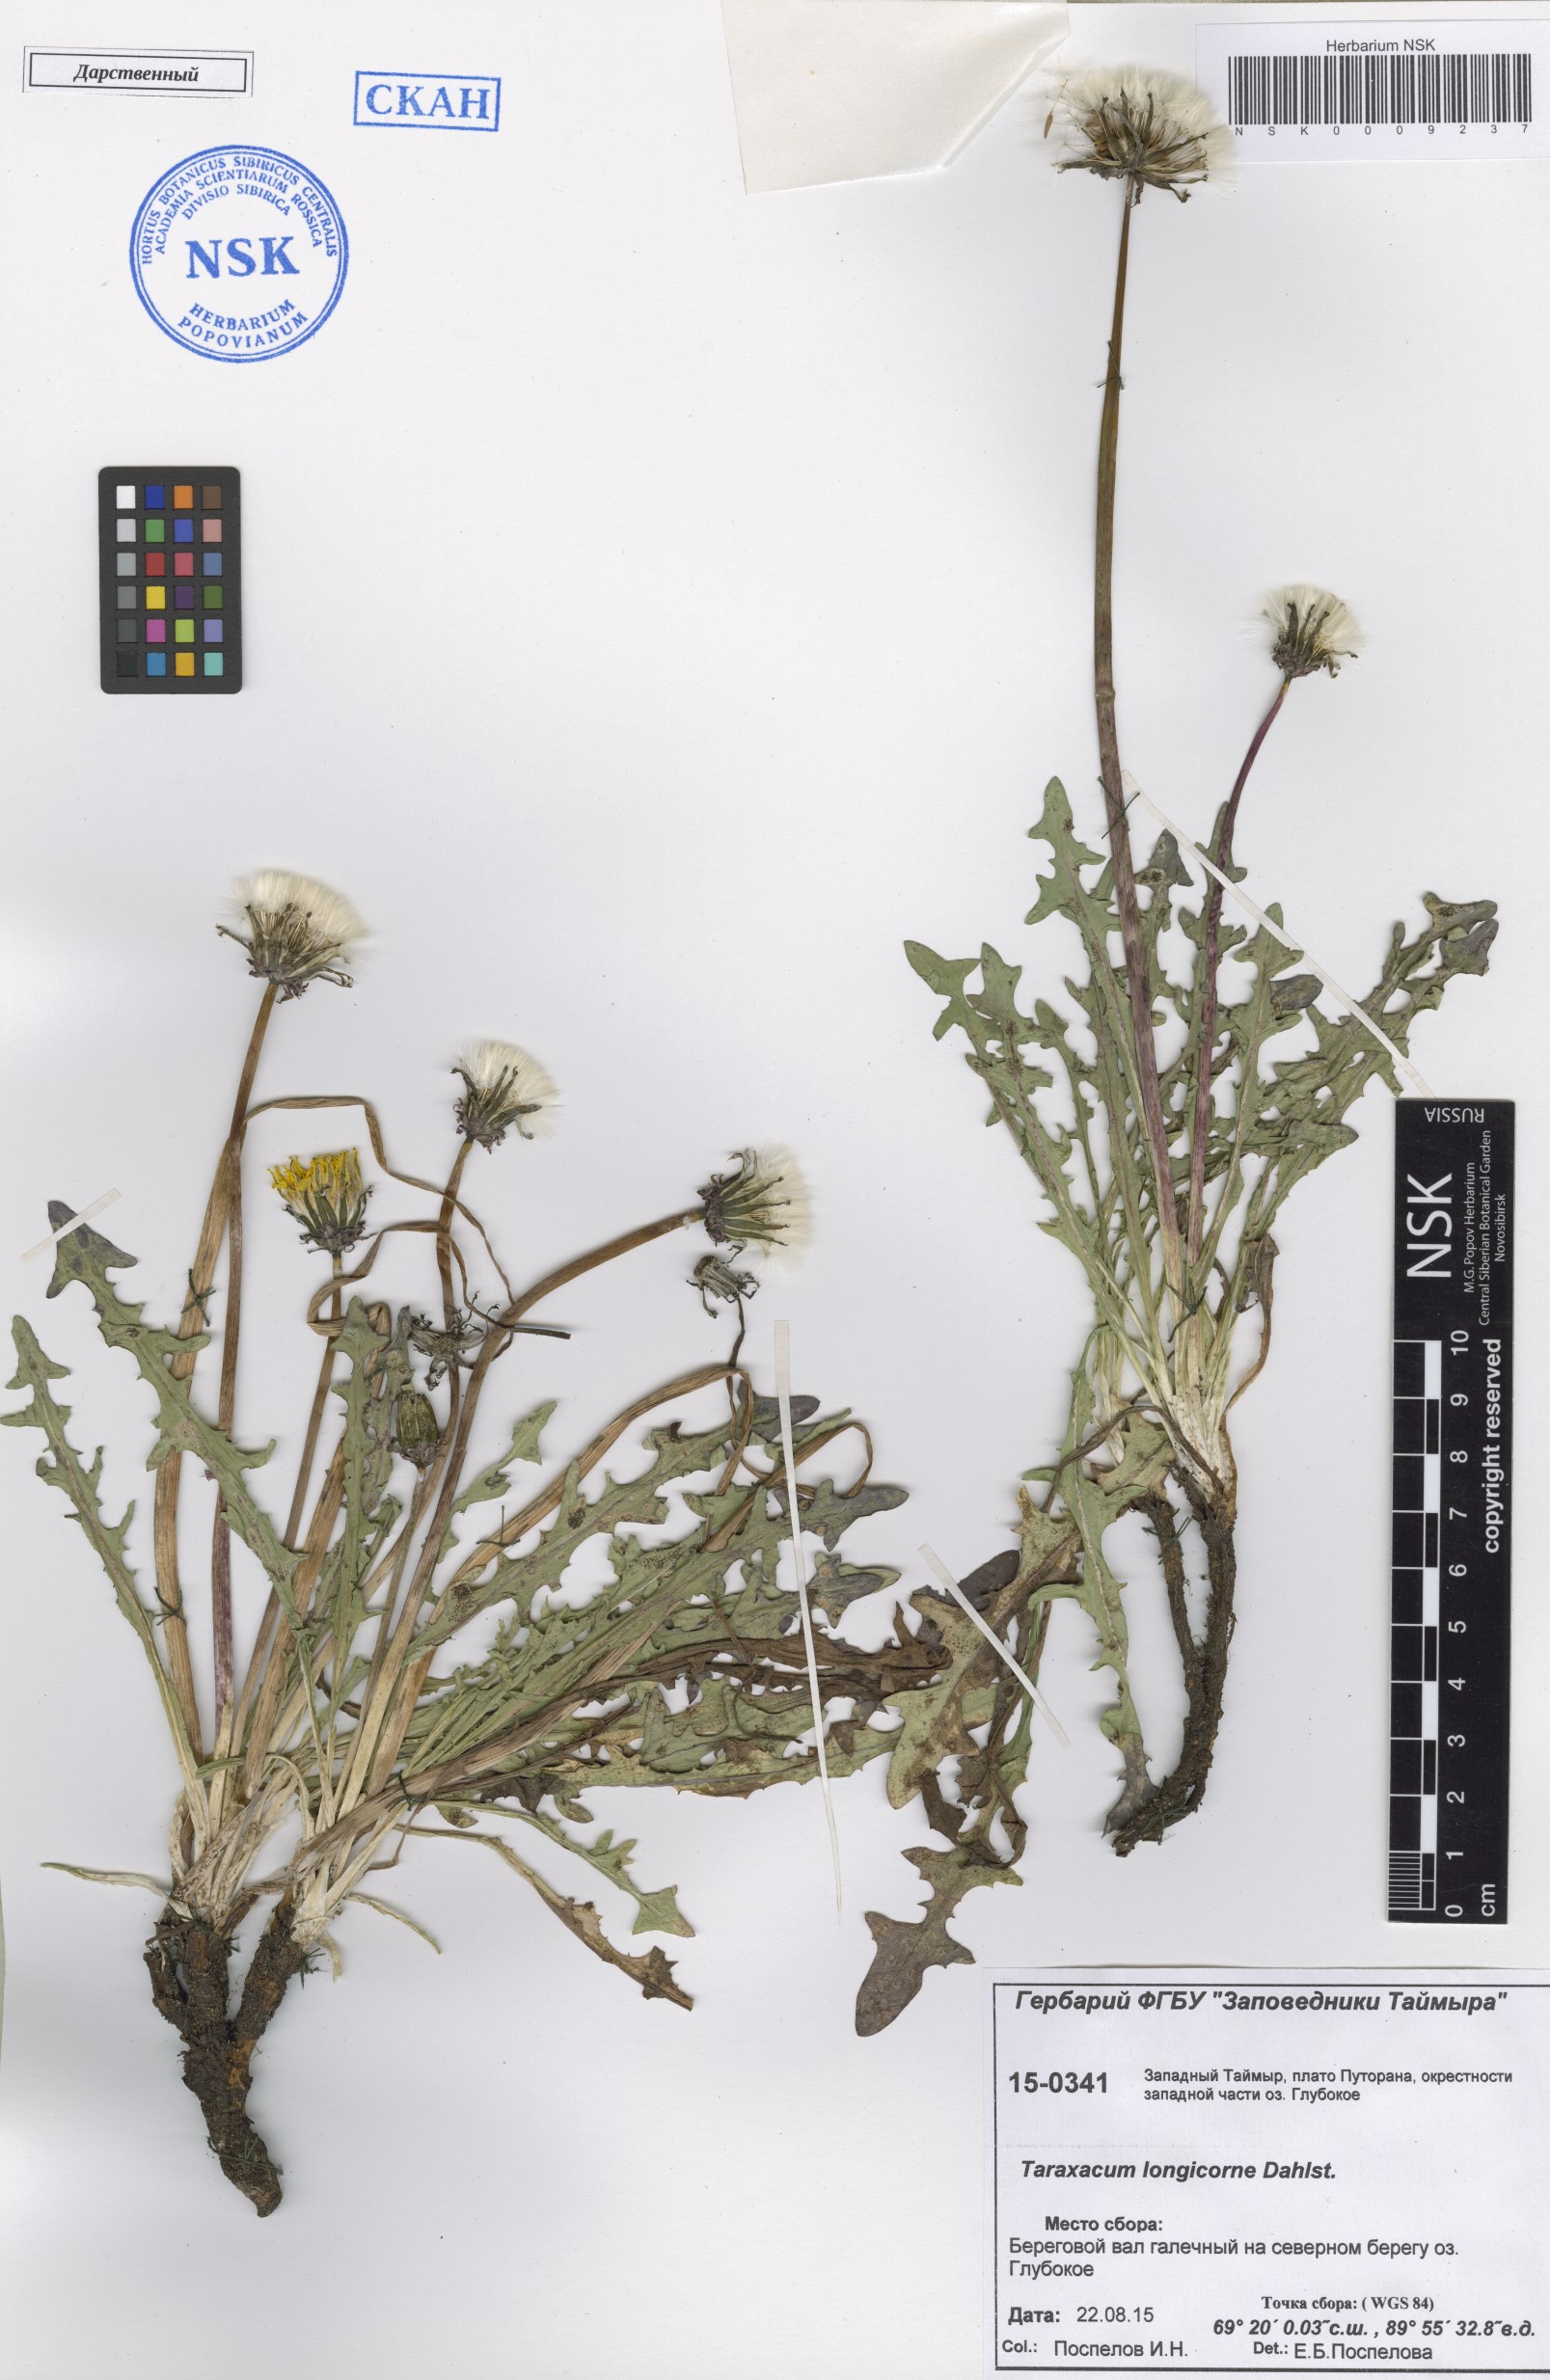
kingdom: Plantae
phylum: Tracheophyta
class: Magnoliopsida
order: Asterales
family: Asteraceae
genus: Taraxacum
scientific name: Taraxacum longicorne
